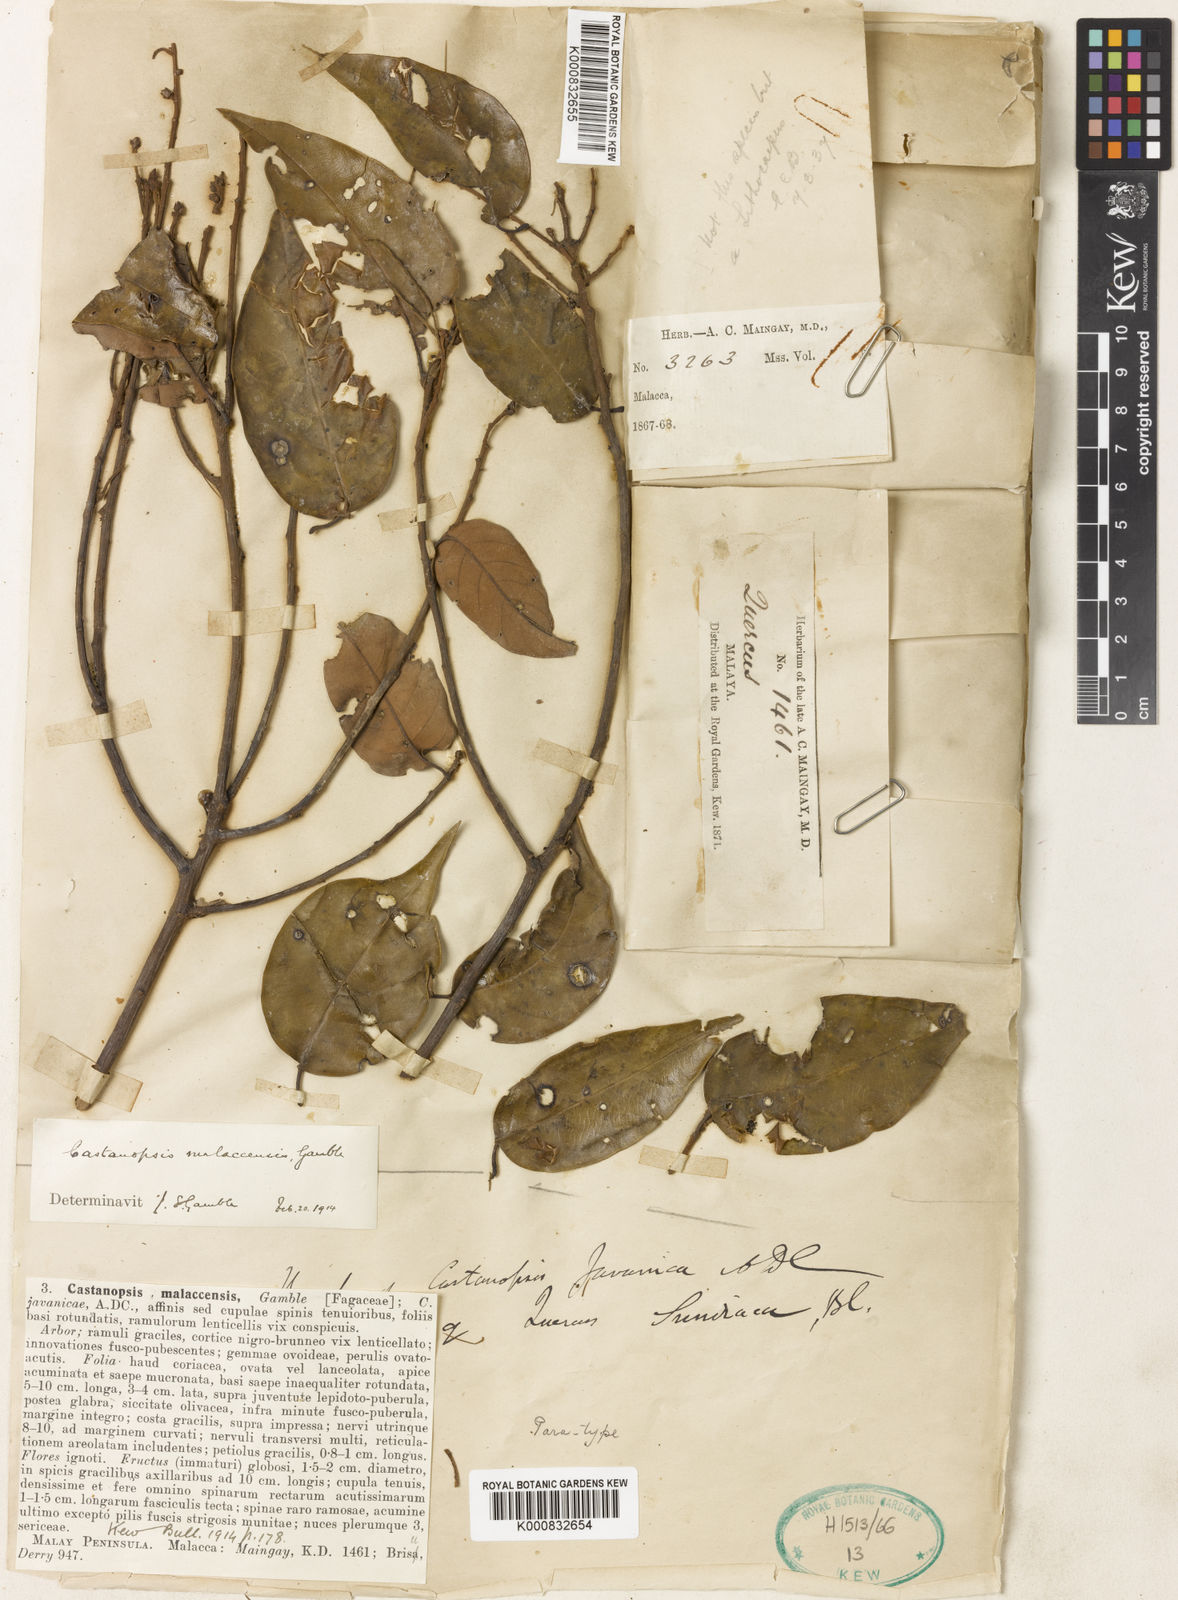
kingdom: Plantae
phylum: Tracheophyta
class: Magnoliopsida
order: Fagales
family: Fagaceae
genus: Castanopsis
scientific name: Castanopsis malaccensis
